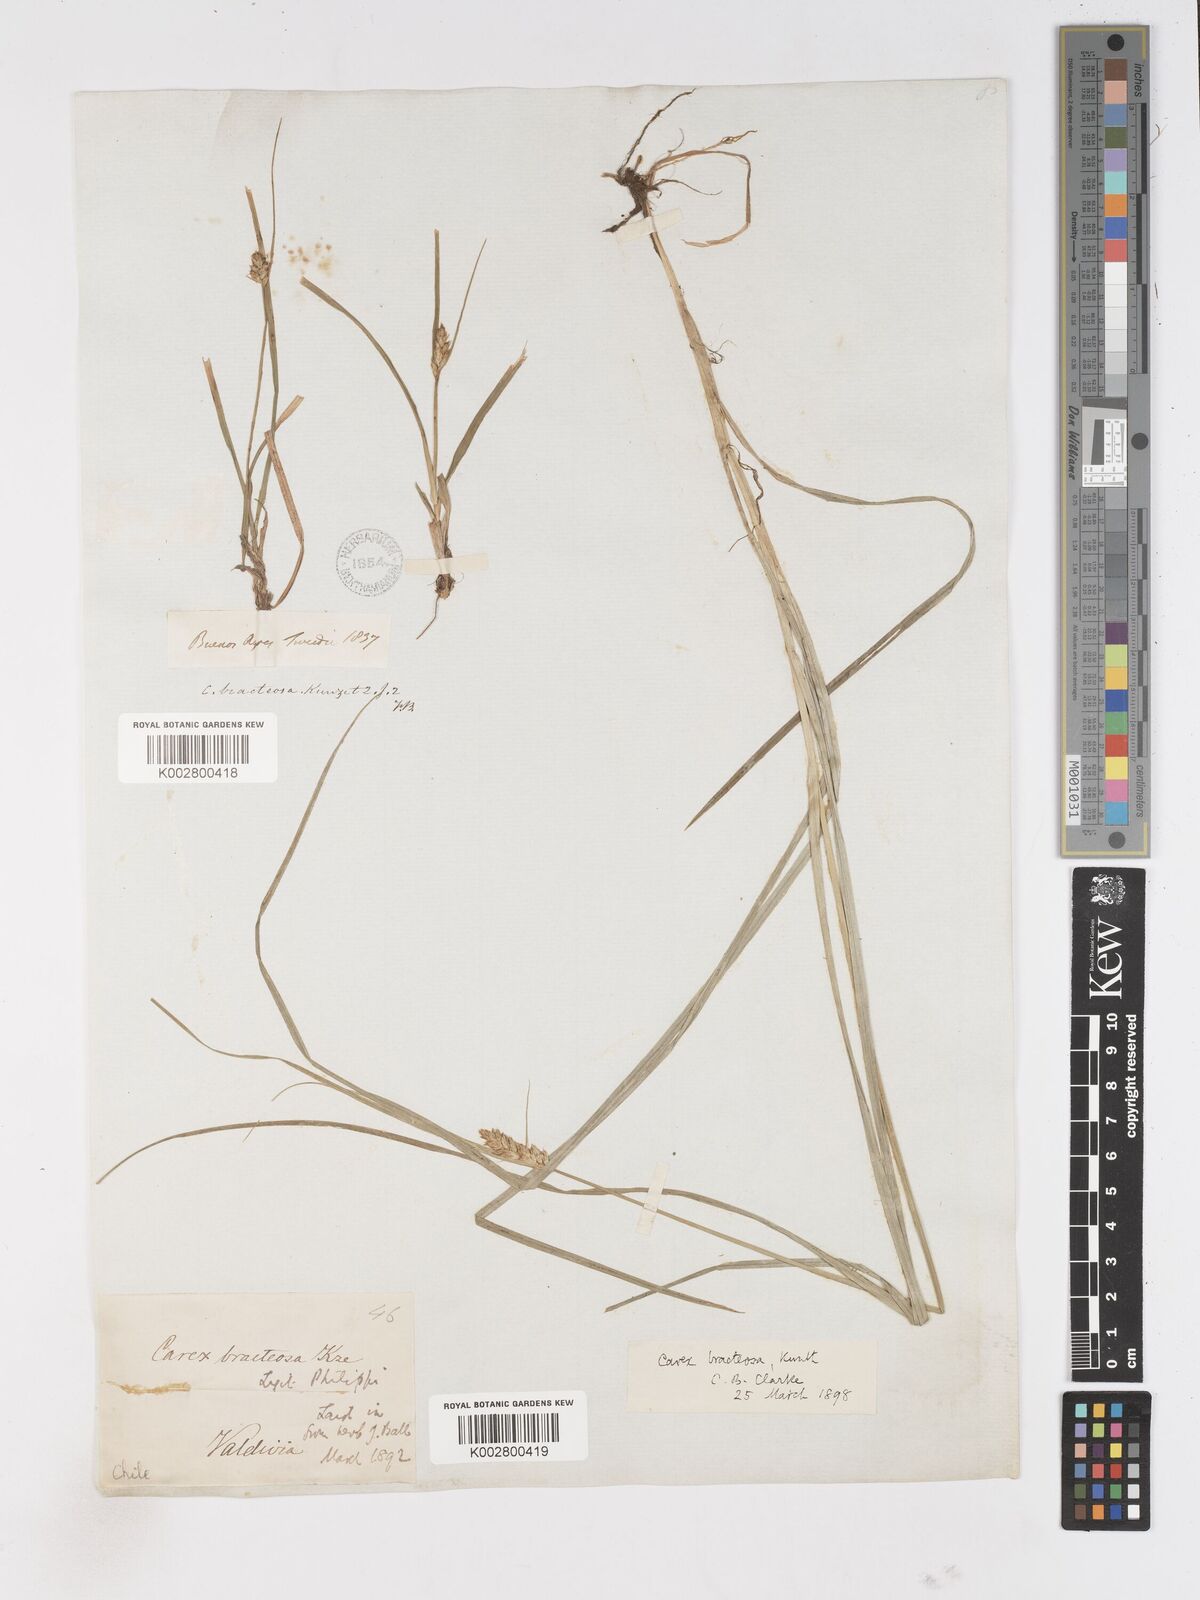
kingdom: Plantae
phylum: Tracheophyta
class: Liliopsida
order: Poales
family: Cyperaceae
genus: Carex
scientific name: Carex bracteosa
